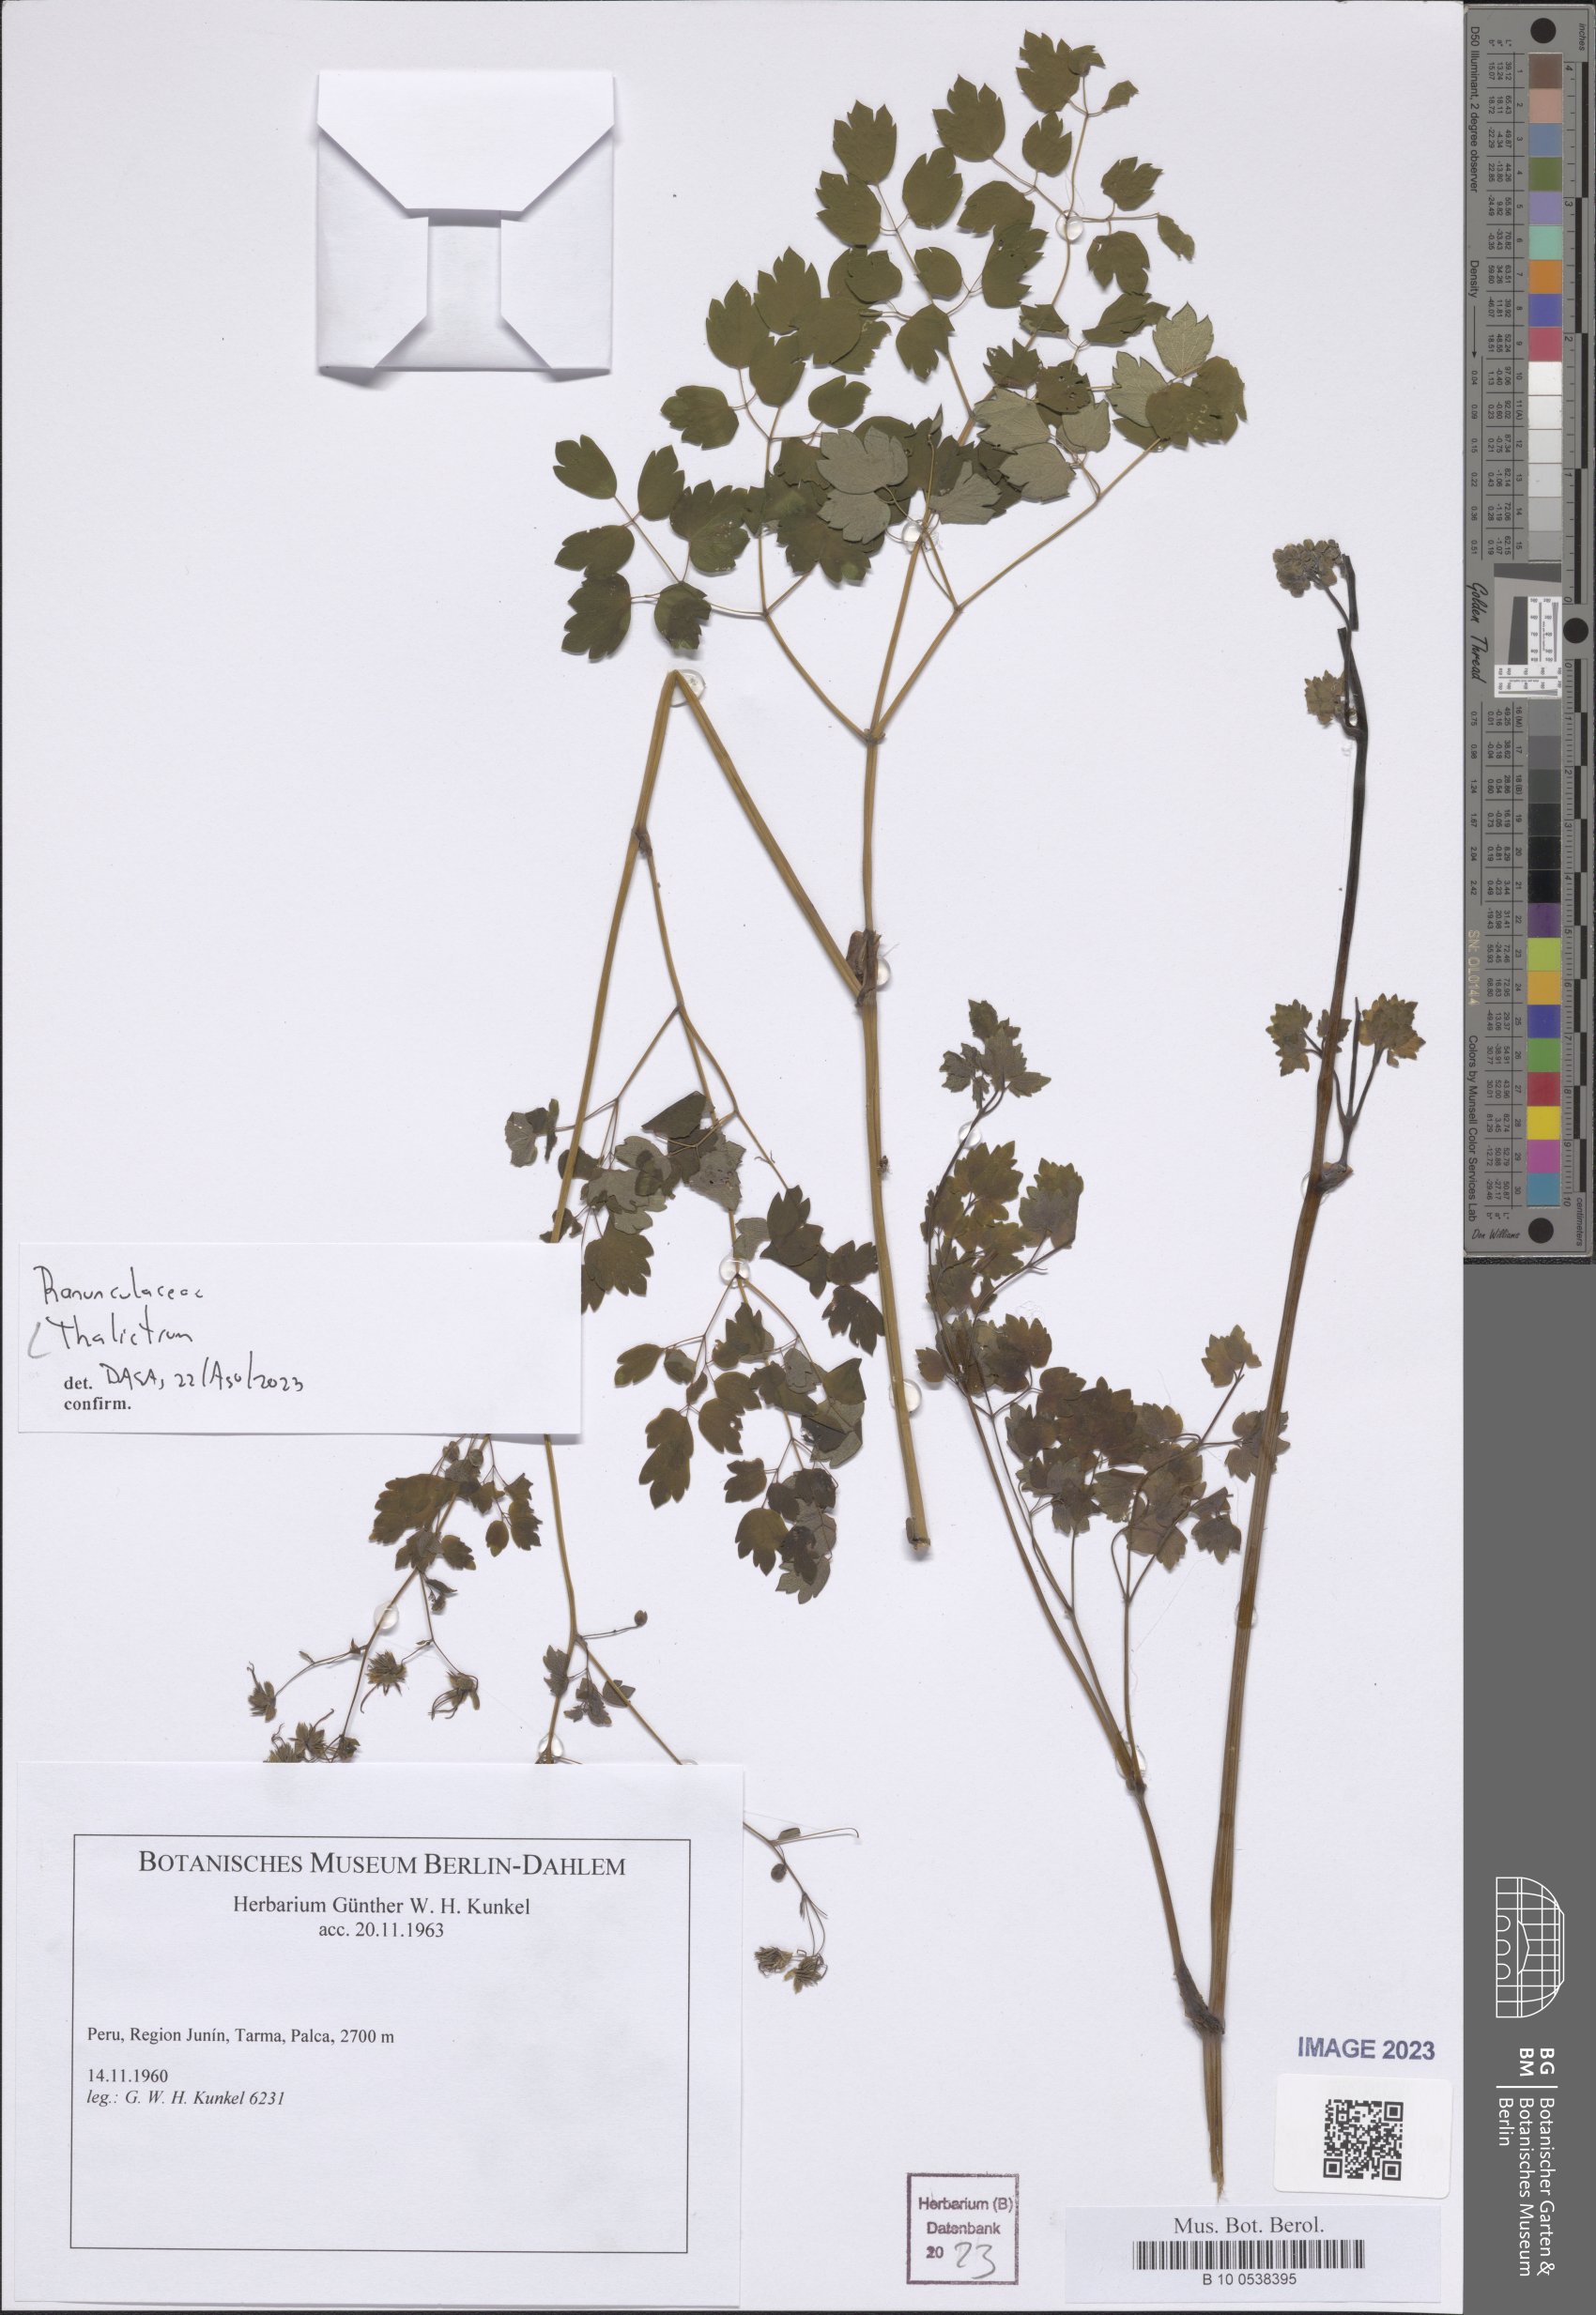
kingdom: Plantae
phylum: Tracheophyta
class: Magnoliopsida
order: Ranunculales
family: Ranunculaceae
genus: Thalictrum
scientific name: Thalictrum
